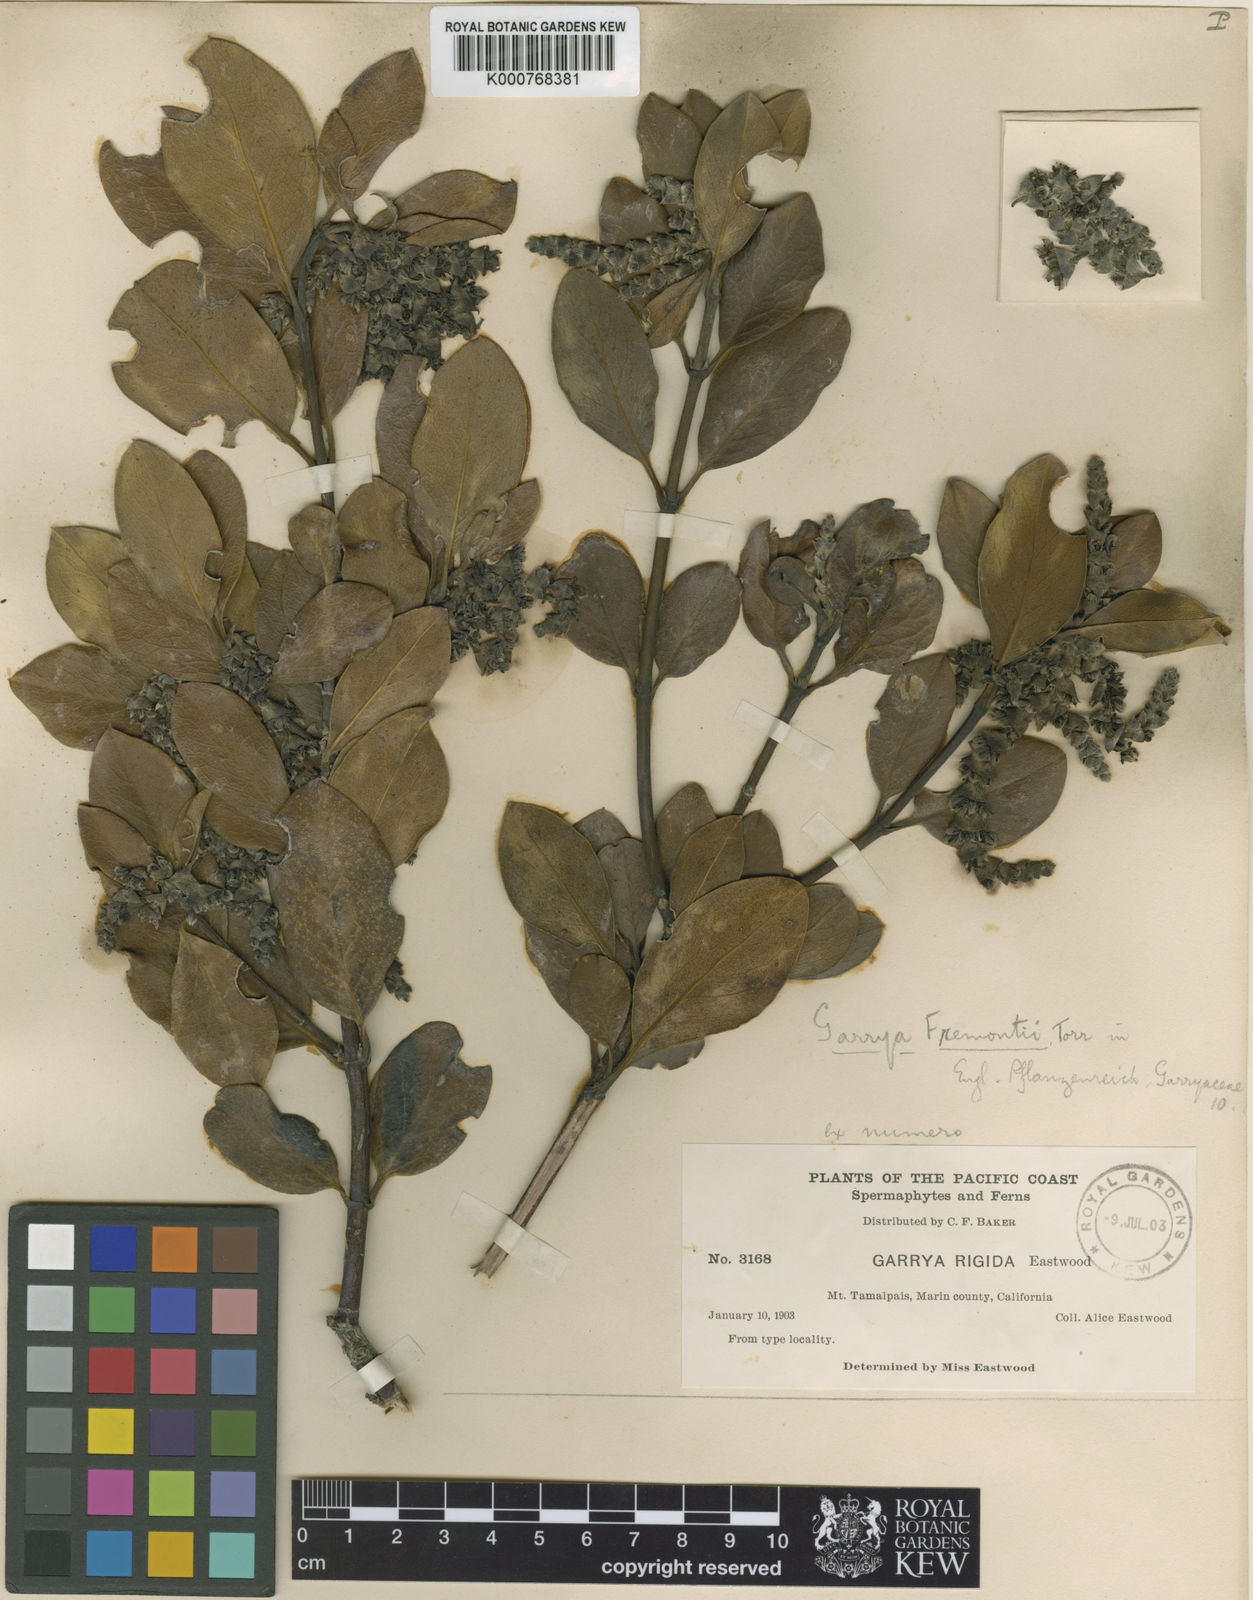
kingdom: Plantae
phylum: Tracheophyta
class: Magnoliopsida
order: Garryales
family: Garryaceae
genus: Garrya
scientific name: Garrya fremontii
